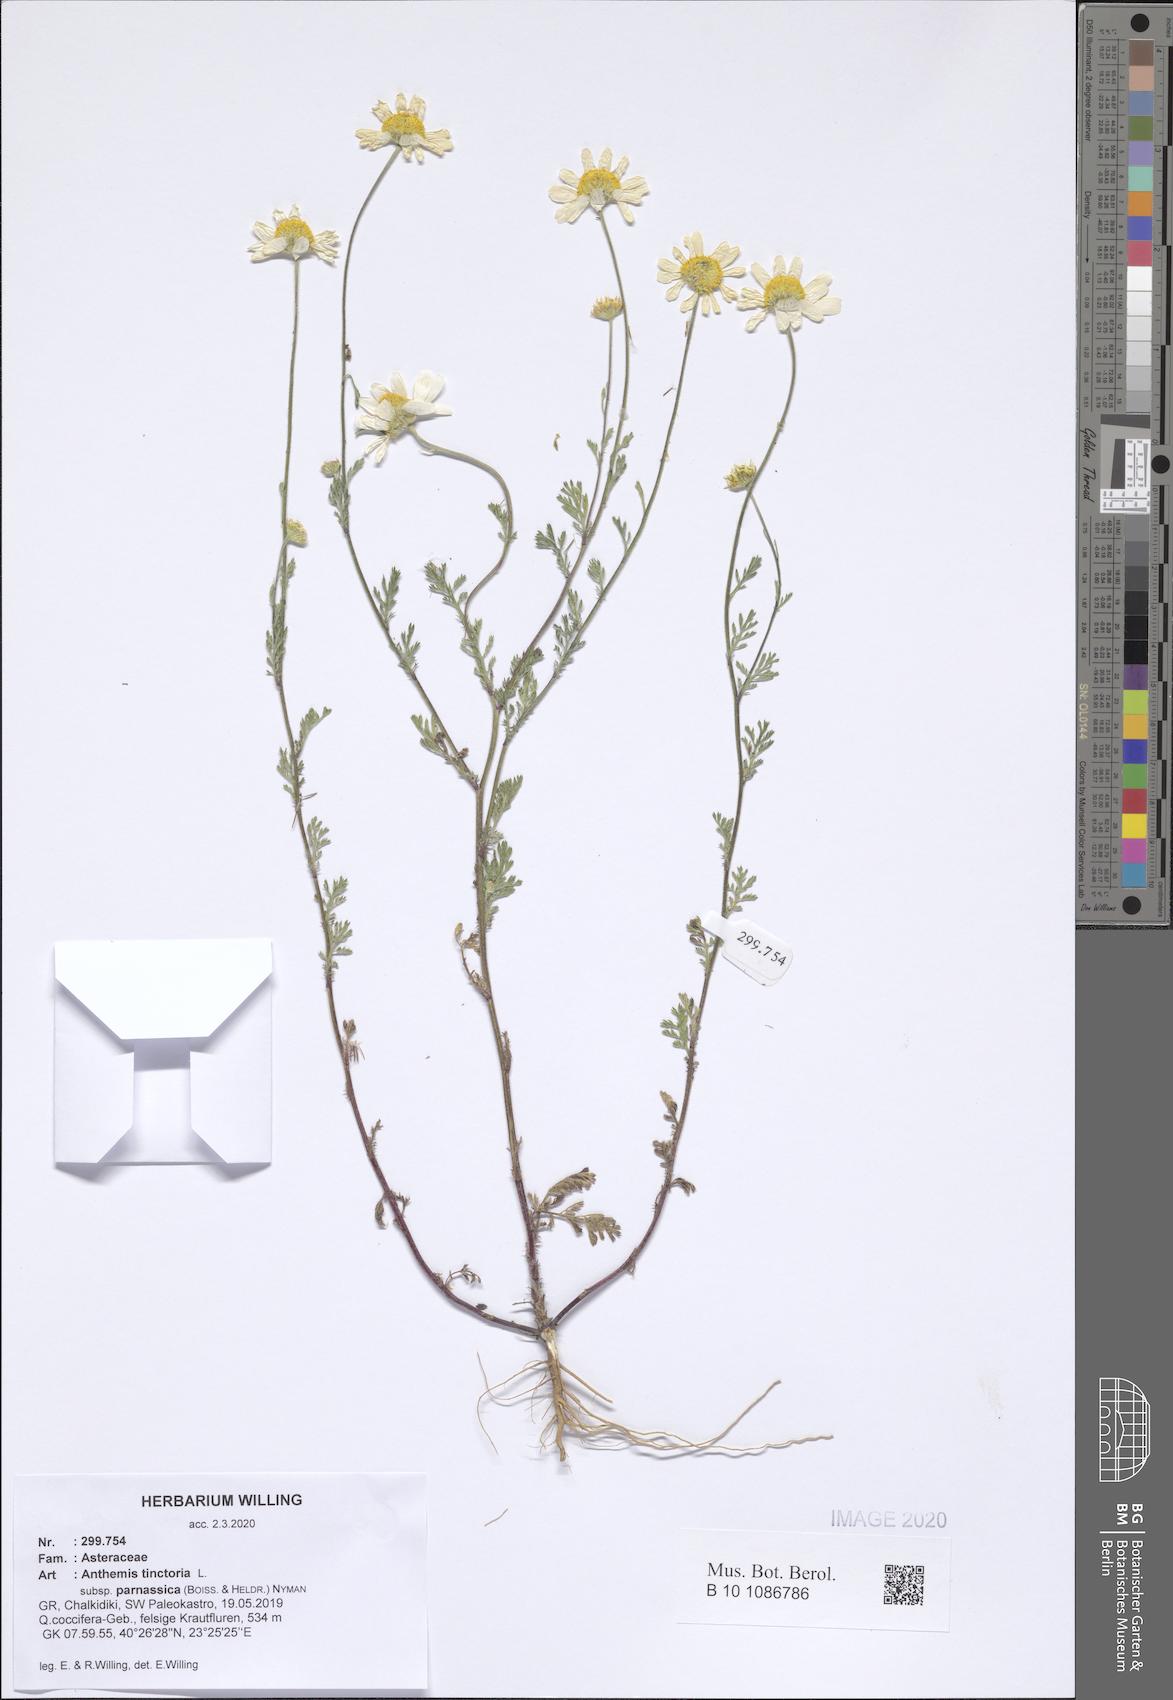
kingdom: Plantae
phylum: Tracheophyta
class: Magnoliopsida
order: Asterales
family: Asteraceae
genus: Cota
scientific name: Cota tinctoria
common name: Golden chamomile
